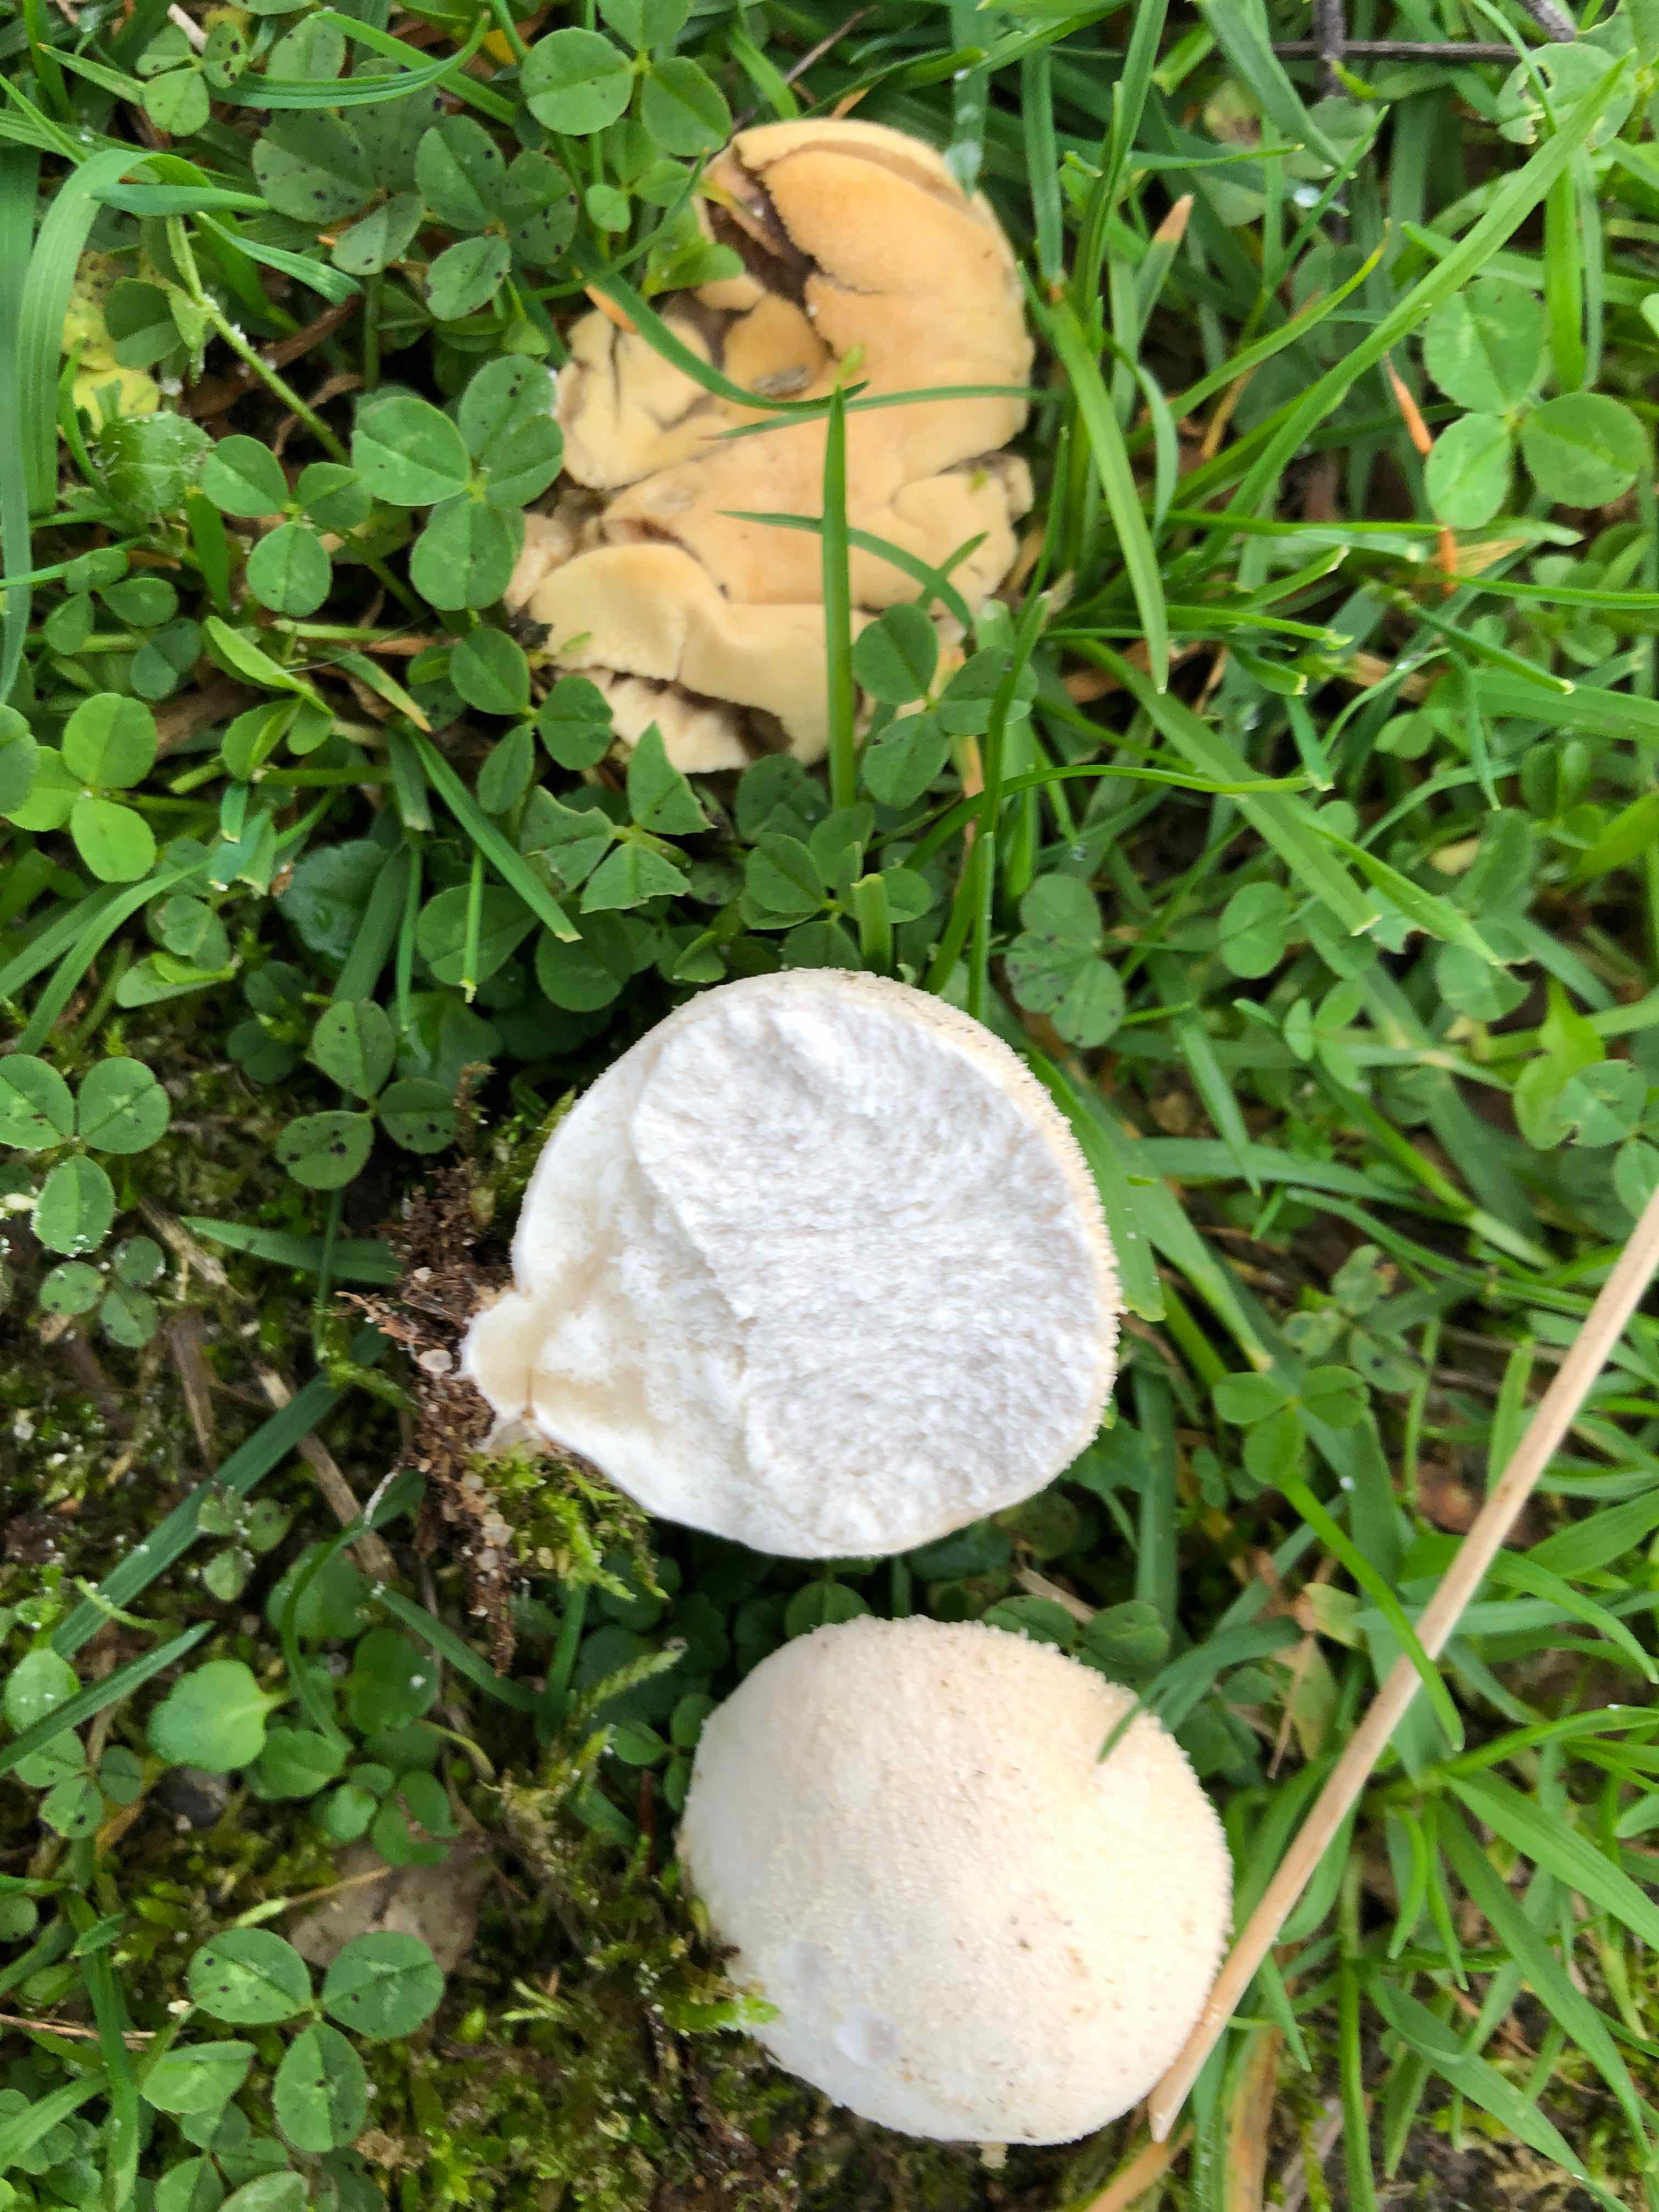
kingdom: Fungi
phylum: Basidiomycota
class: Agaricomycetes
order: Agaricales
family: Lycoperdaceae
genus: Lycoperdon
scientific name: Lycoperdon pratense
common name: flad støvbold
